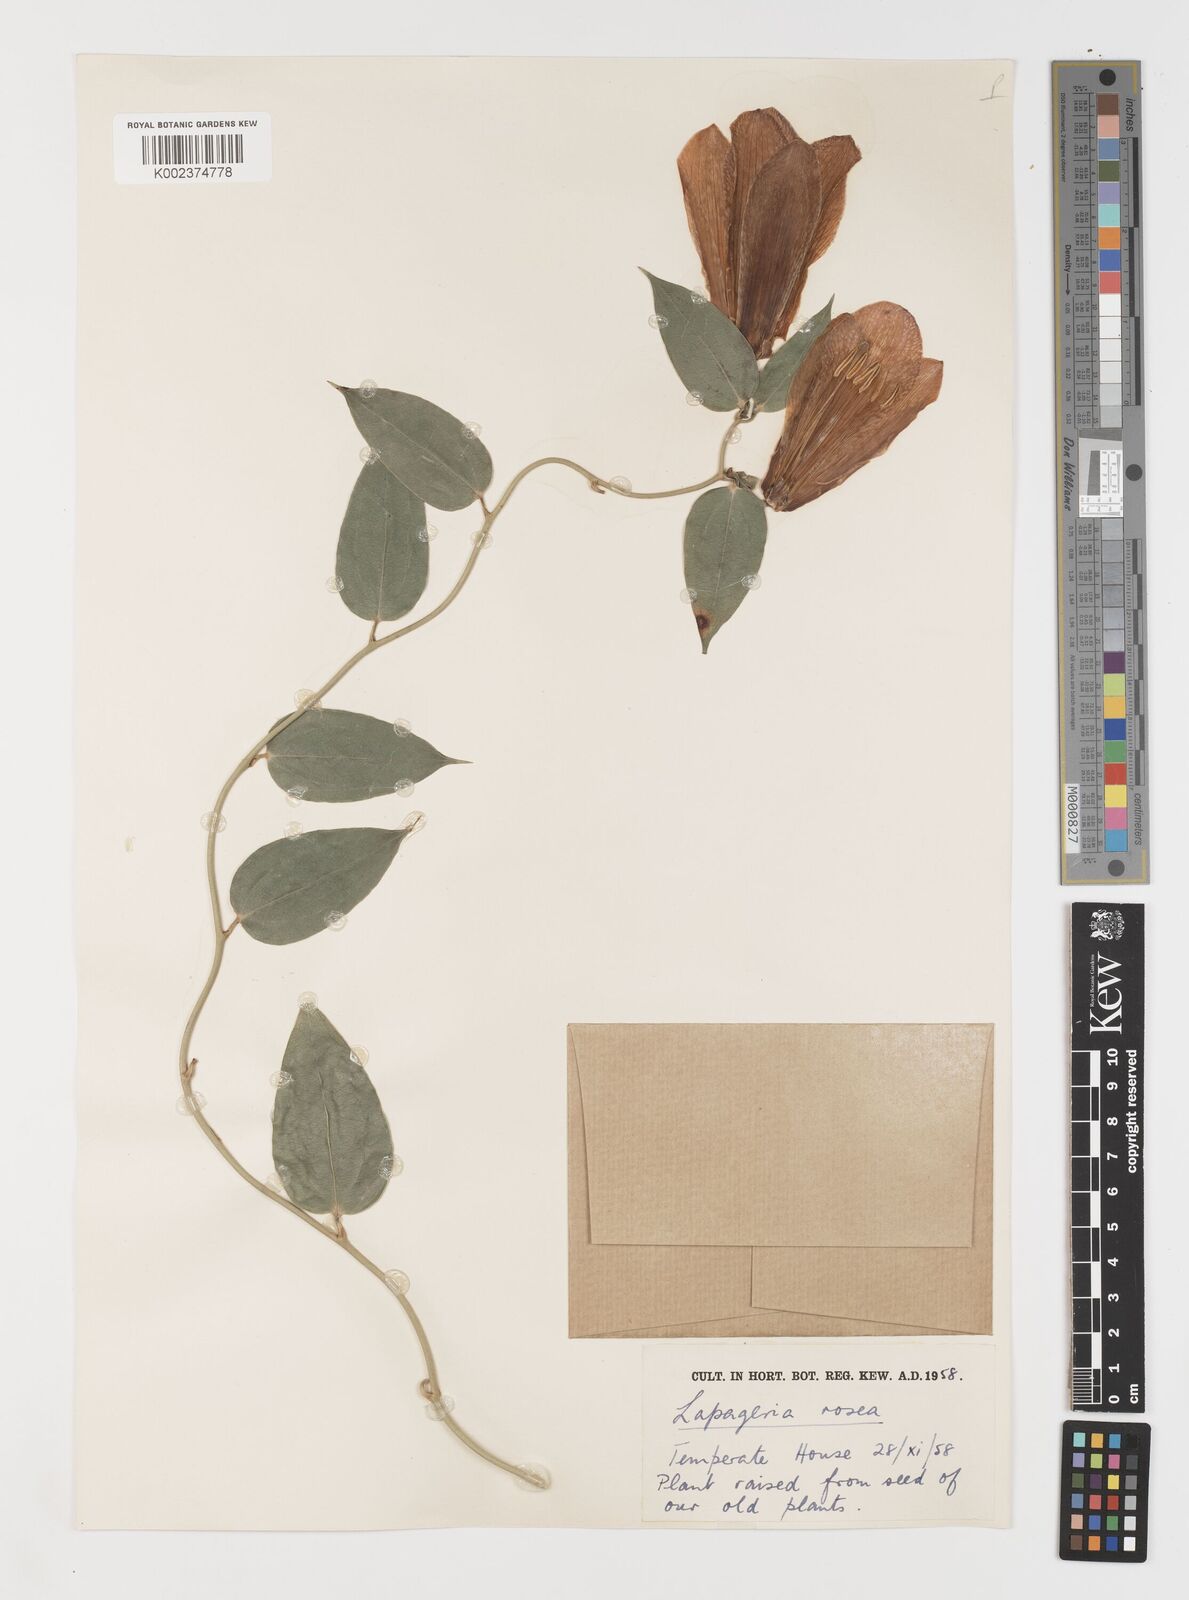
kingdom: Plantae
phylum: Tracheophyta
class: Liliopsida
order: Liliales
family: Philesiaceae
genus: Lapageria
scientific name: Lapageria rosea
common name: Chilean-bellflower
